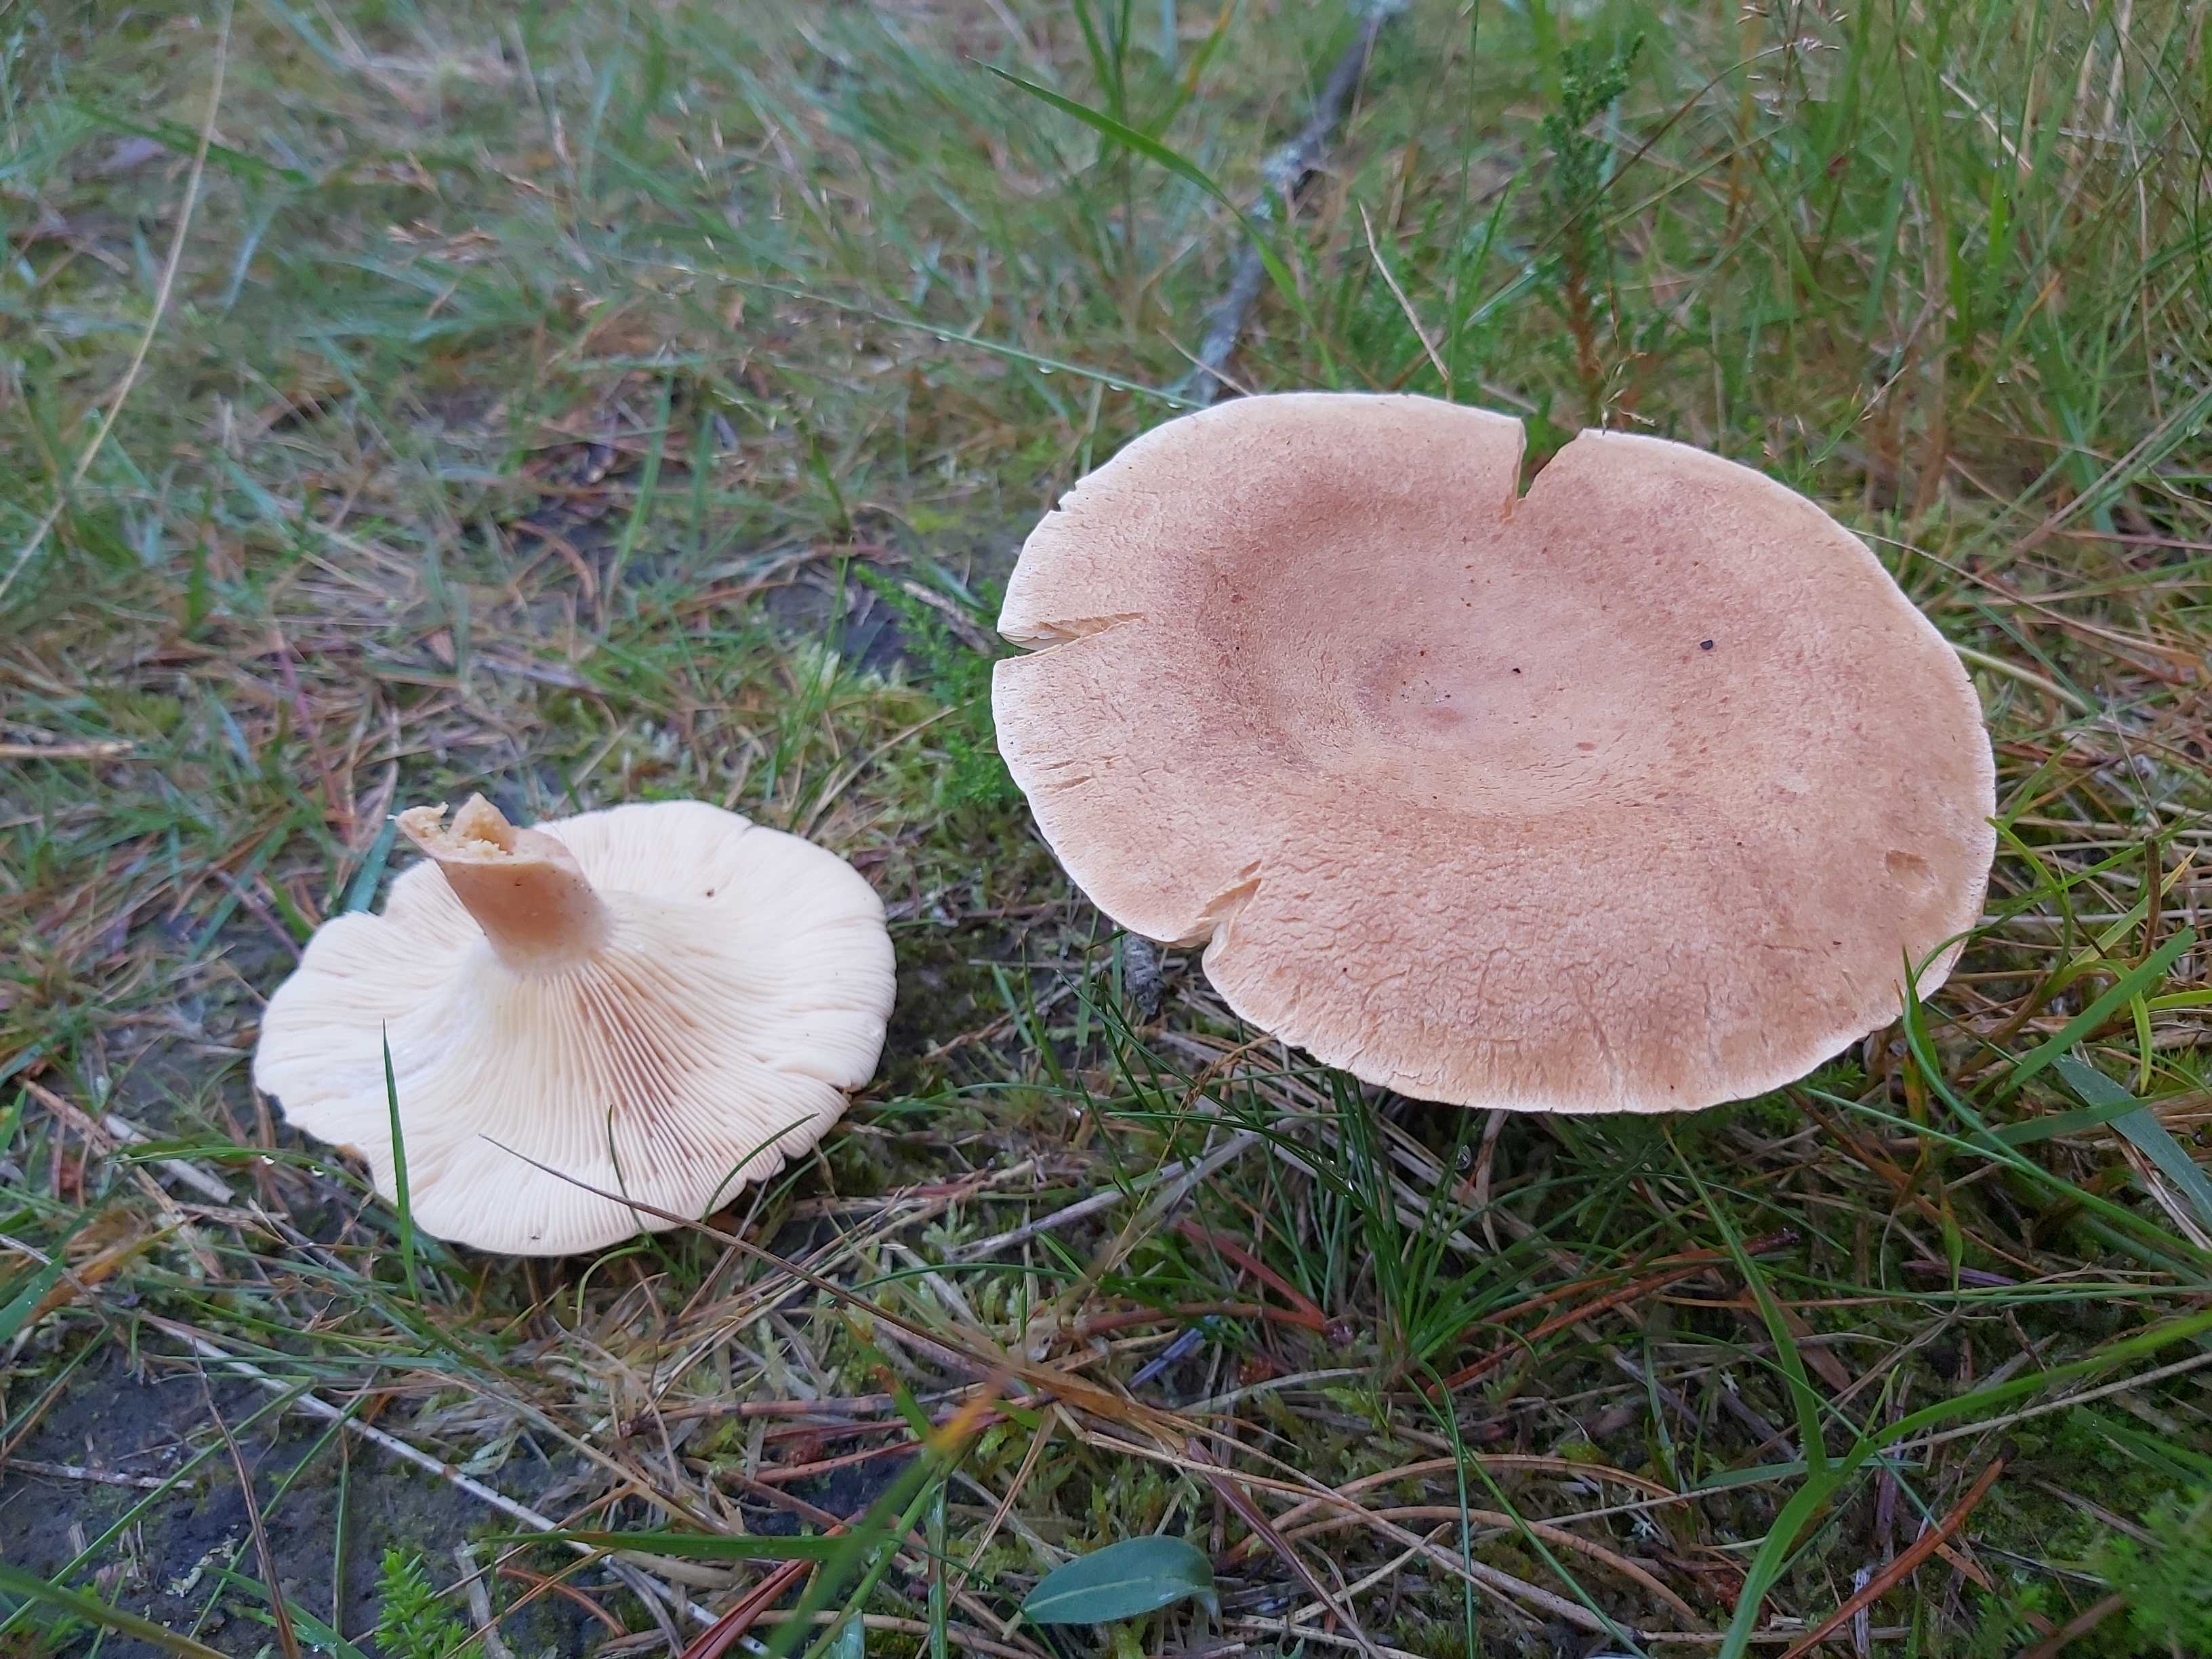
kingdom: Fungi
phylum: Basidiomycota
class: Agaricomycetes
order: Russulales
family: Russulaceae
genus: Lactarius
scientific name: Lactarius helvus
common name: mose-mælkehat
